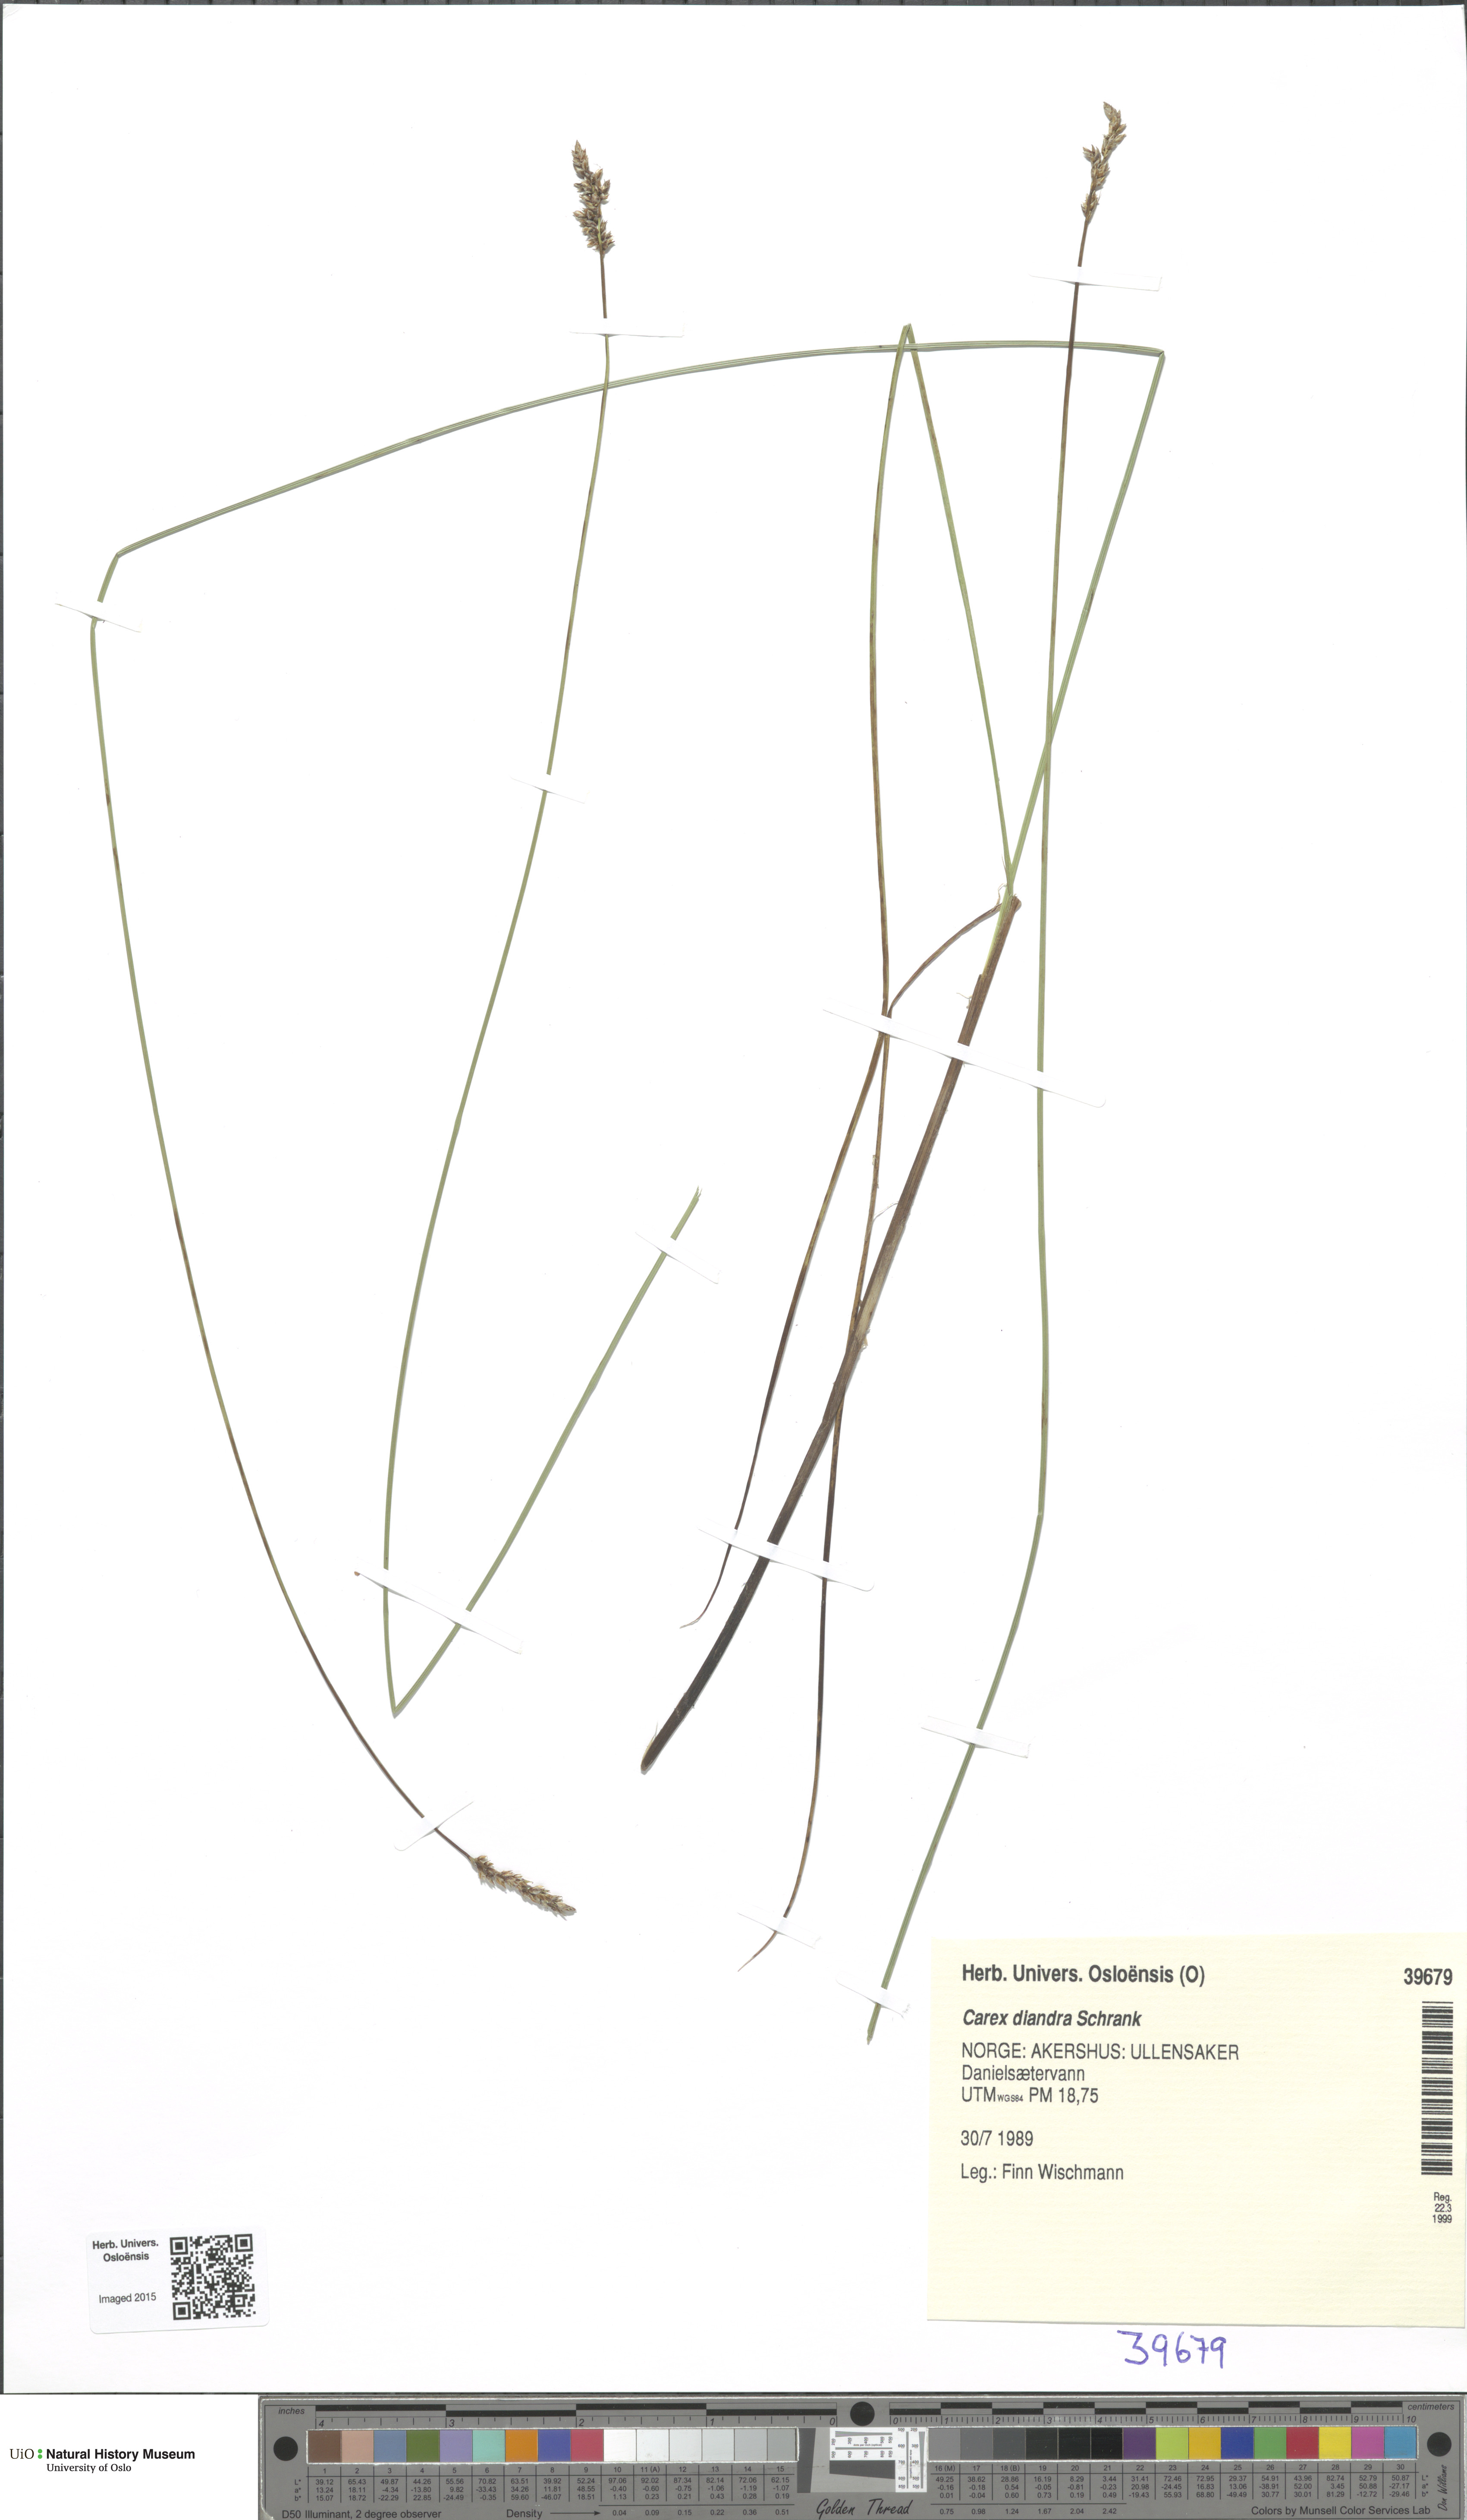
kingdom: Plantae
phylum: Tracheophyta
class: Liliopsida
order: Poales
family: Cyperaceae
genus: Carex
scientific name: Carex diandra
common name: Lesser tussock-sedge
